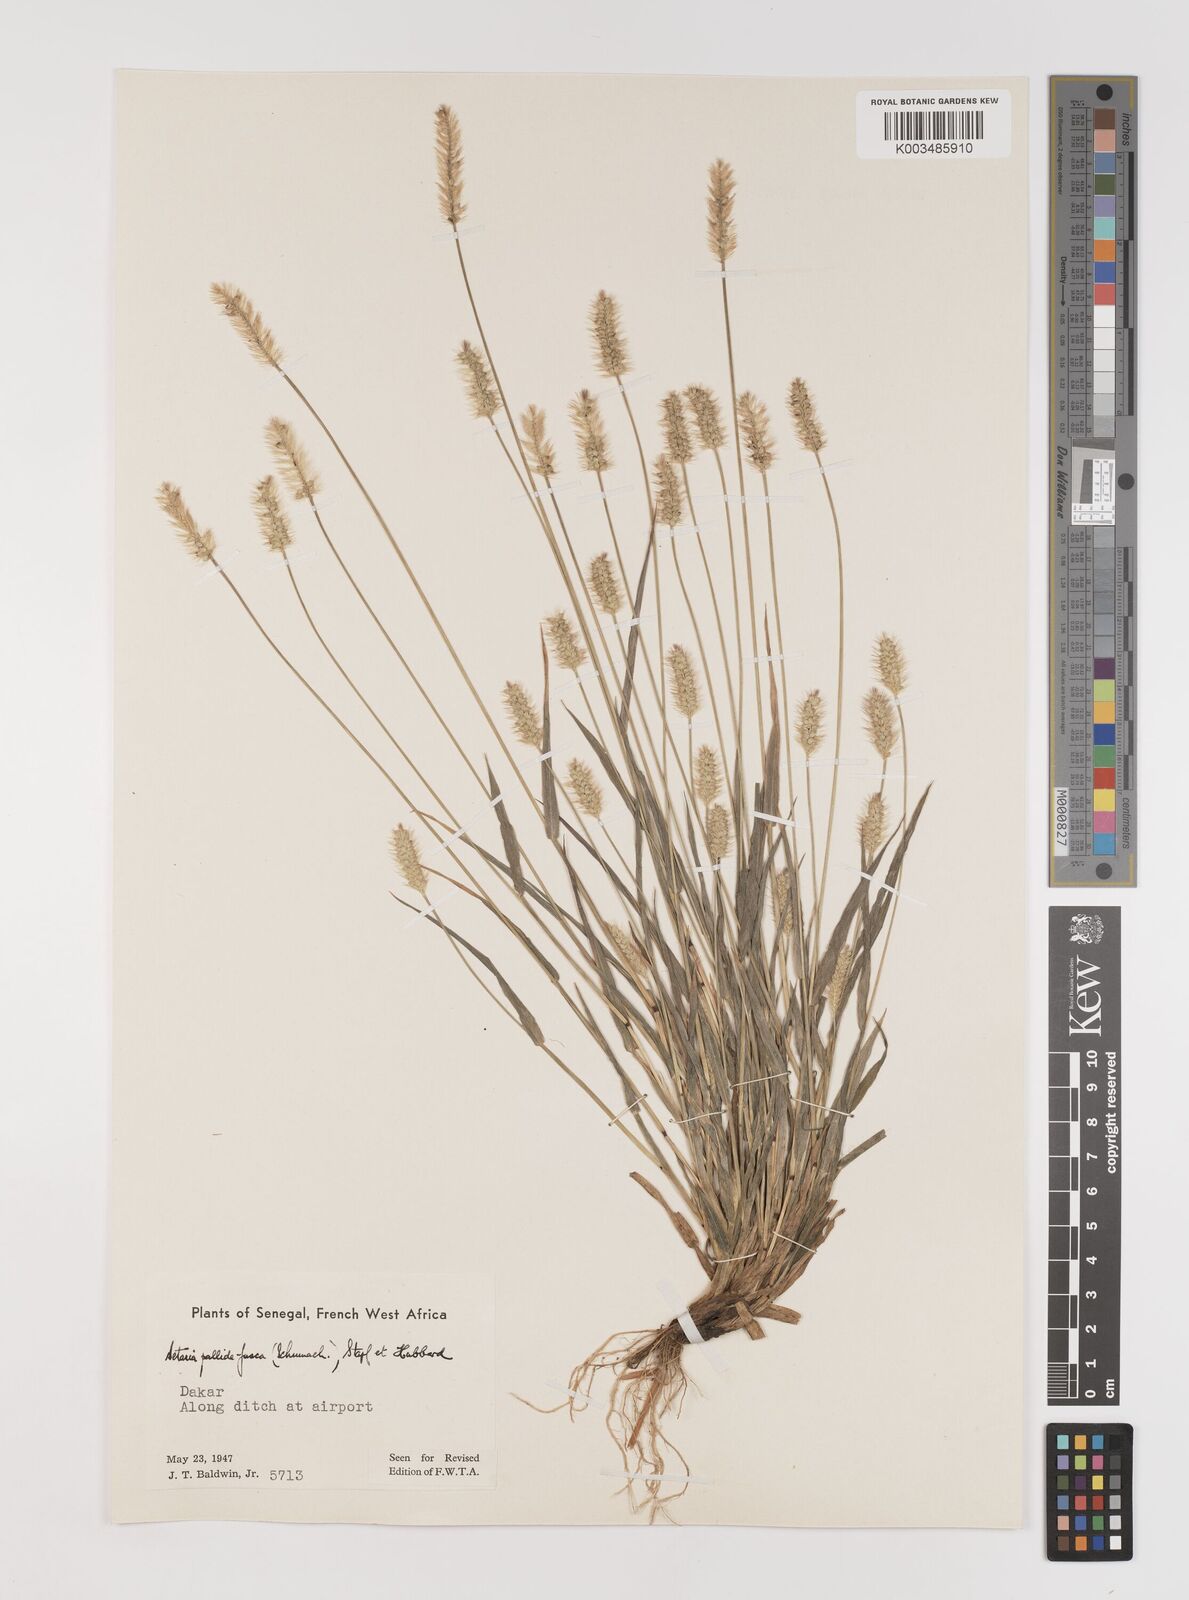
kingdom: Plantae
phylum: Tracheophyta
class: Liliopsida
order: Poales
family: Poaceae
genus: Setaria
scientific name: Setaria pumila
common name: Yellow bristle-grass
